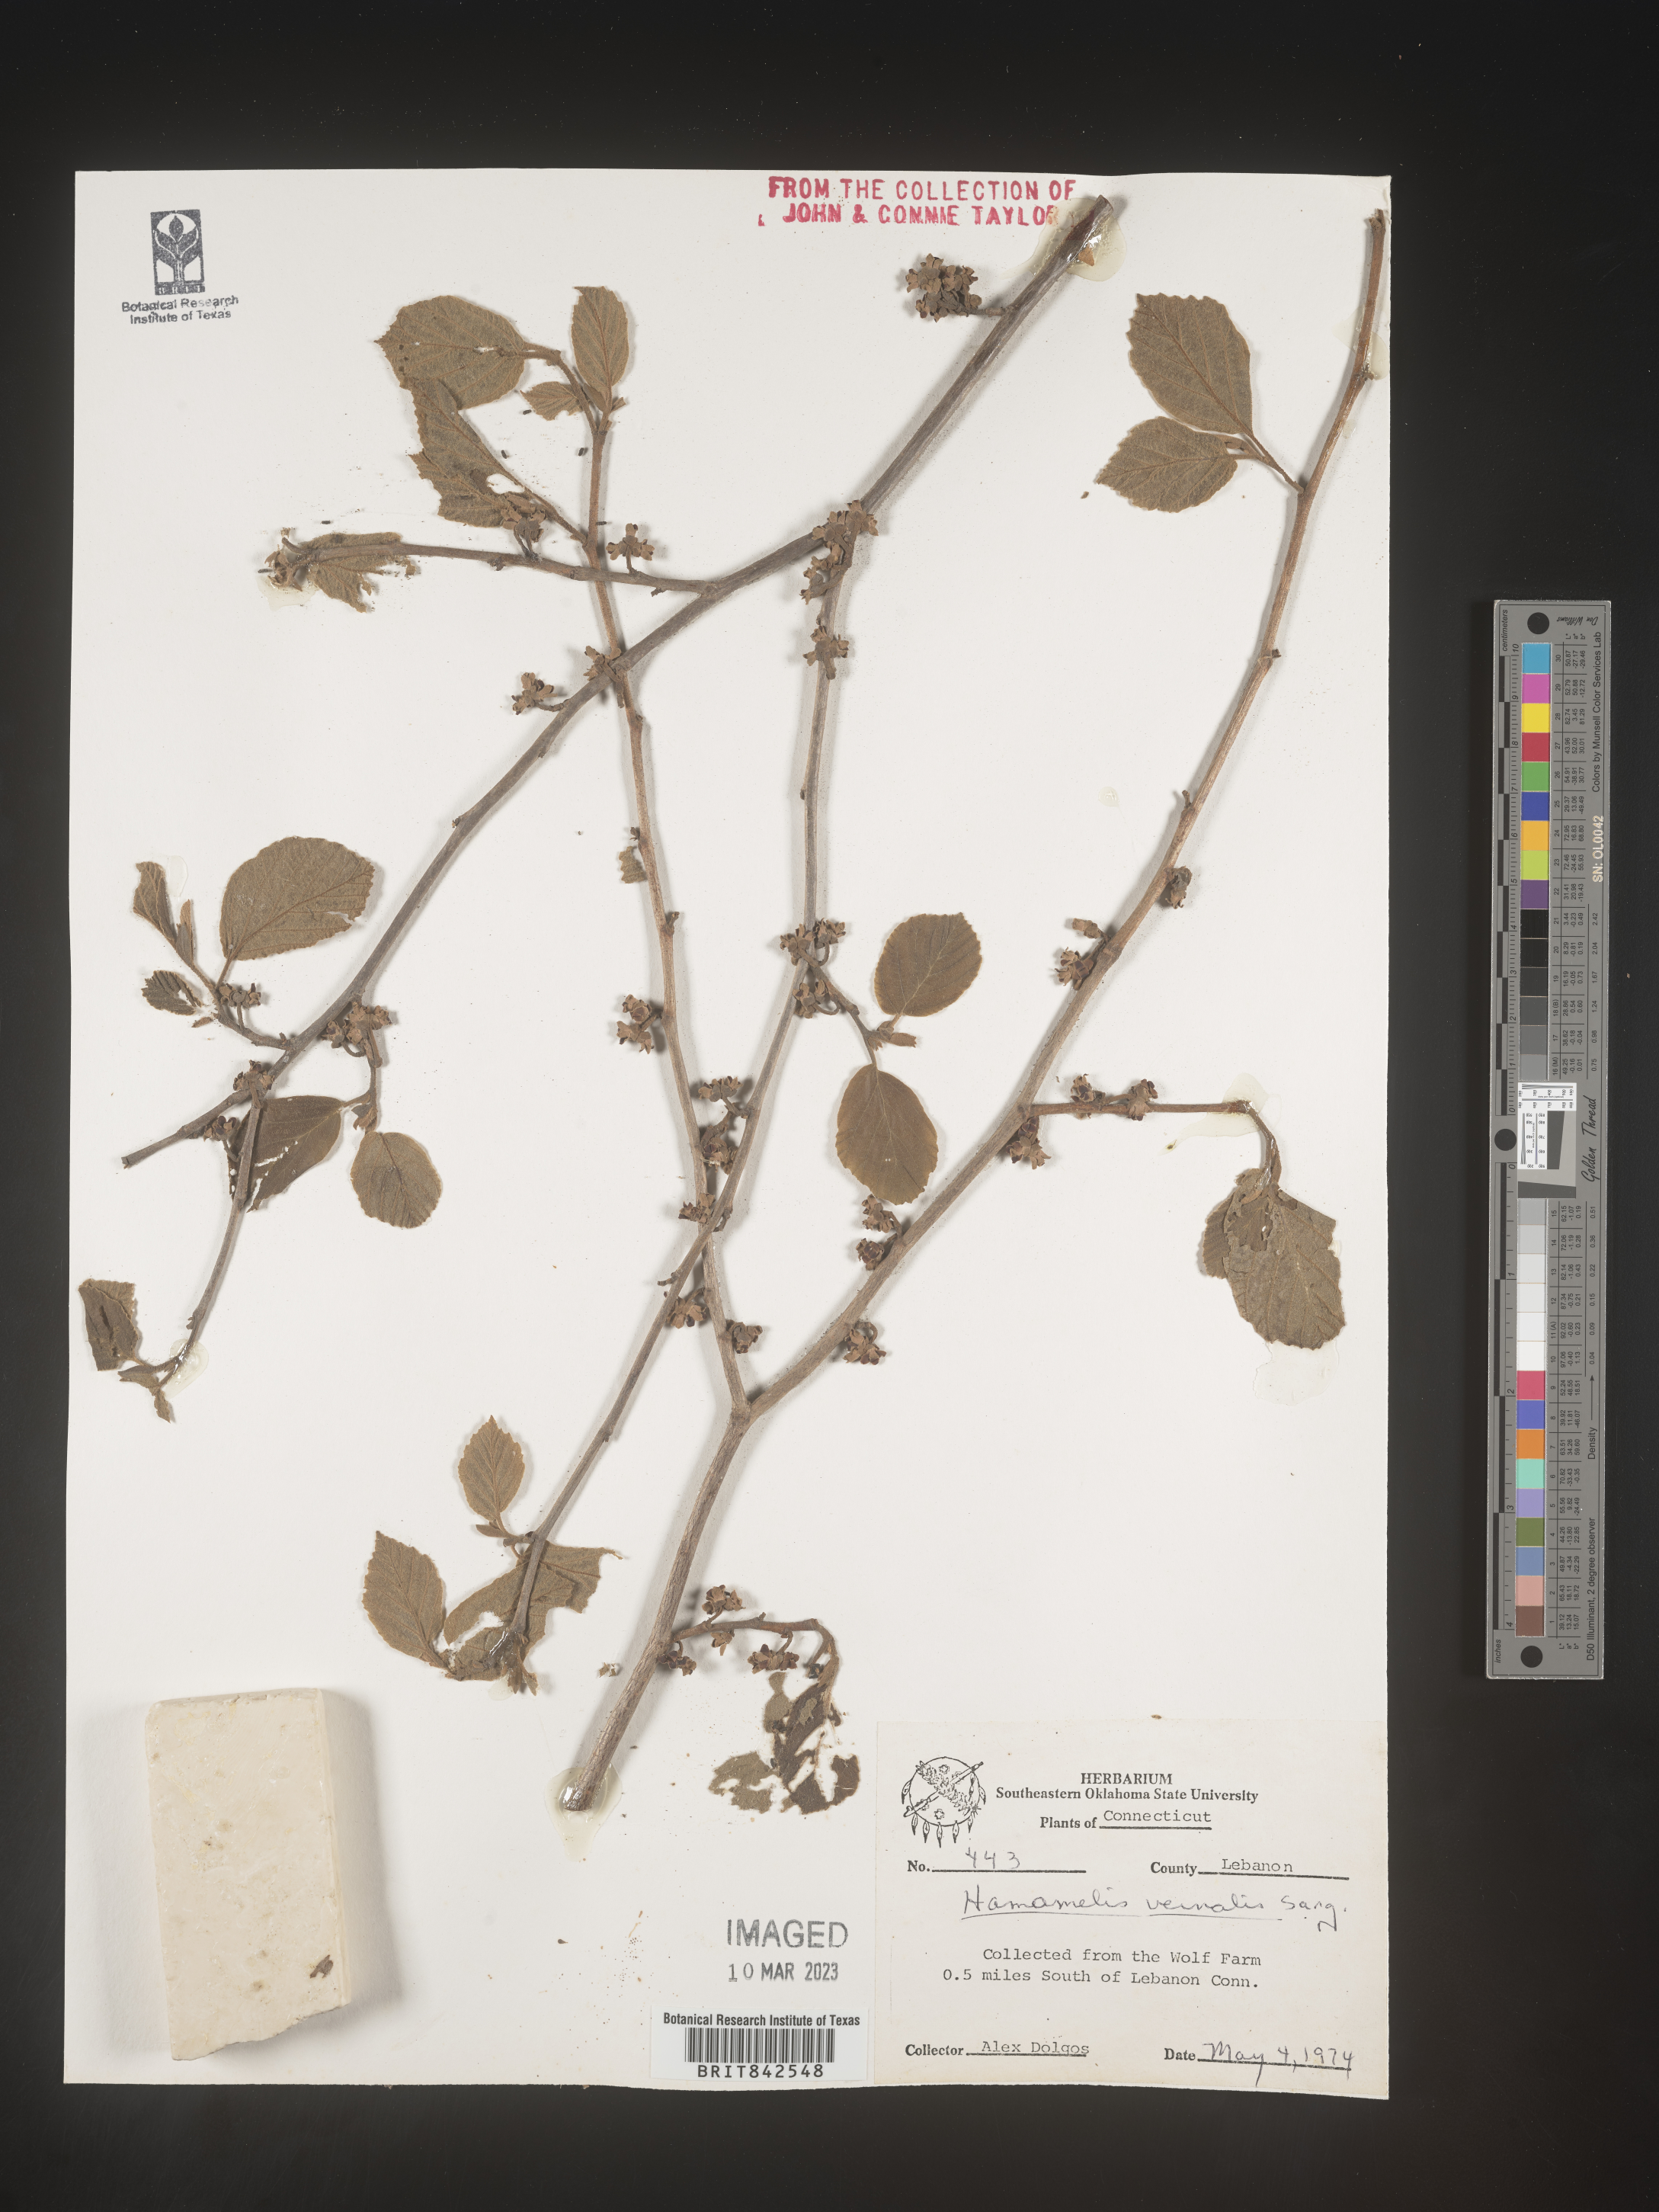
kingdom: Plantae
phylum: Tracheophyta
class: Magnoliopsida
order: Saxifragales
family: Hamamelidaceae
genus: Hamamelis
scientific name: Hamamelis vernalis
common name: Ozark witch-hazel
